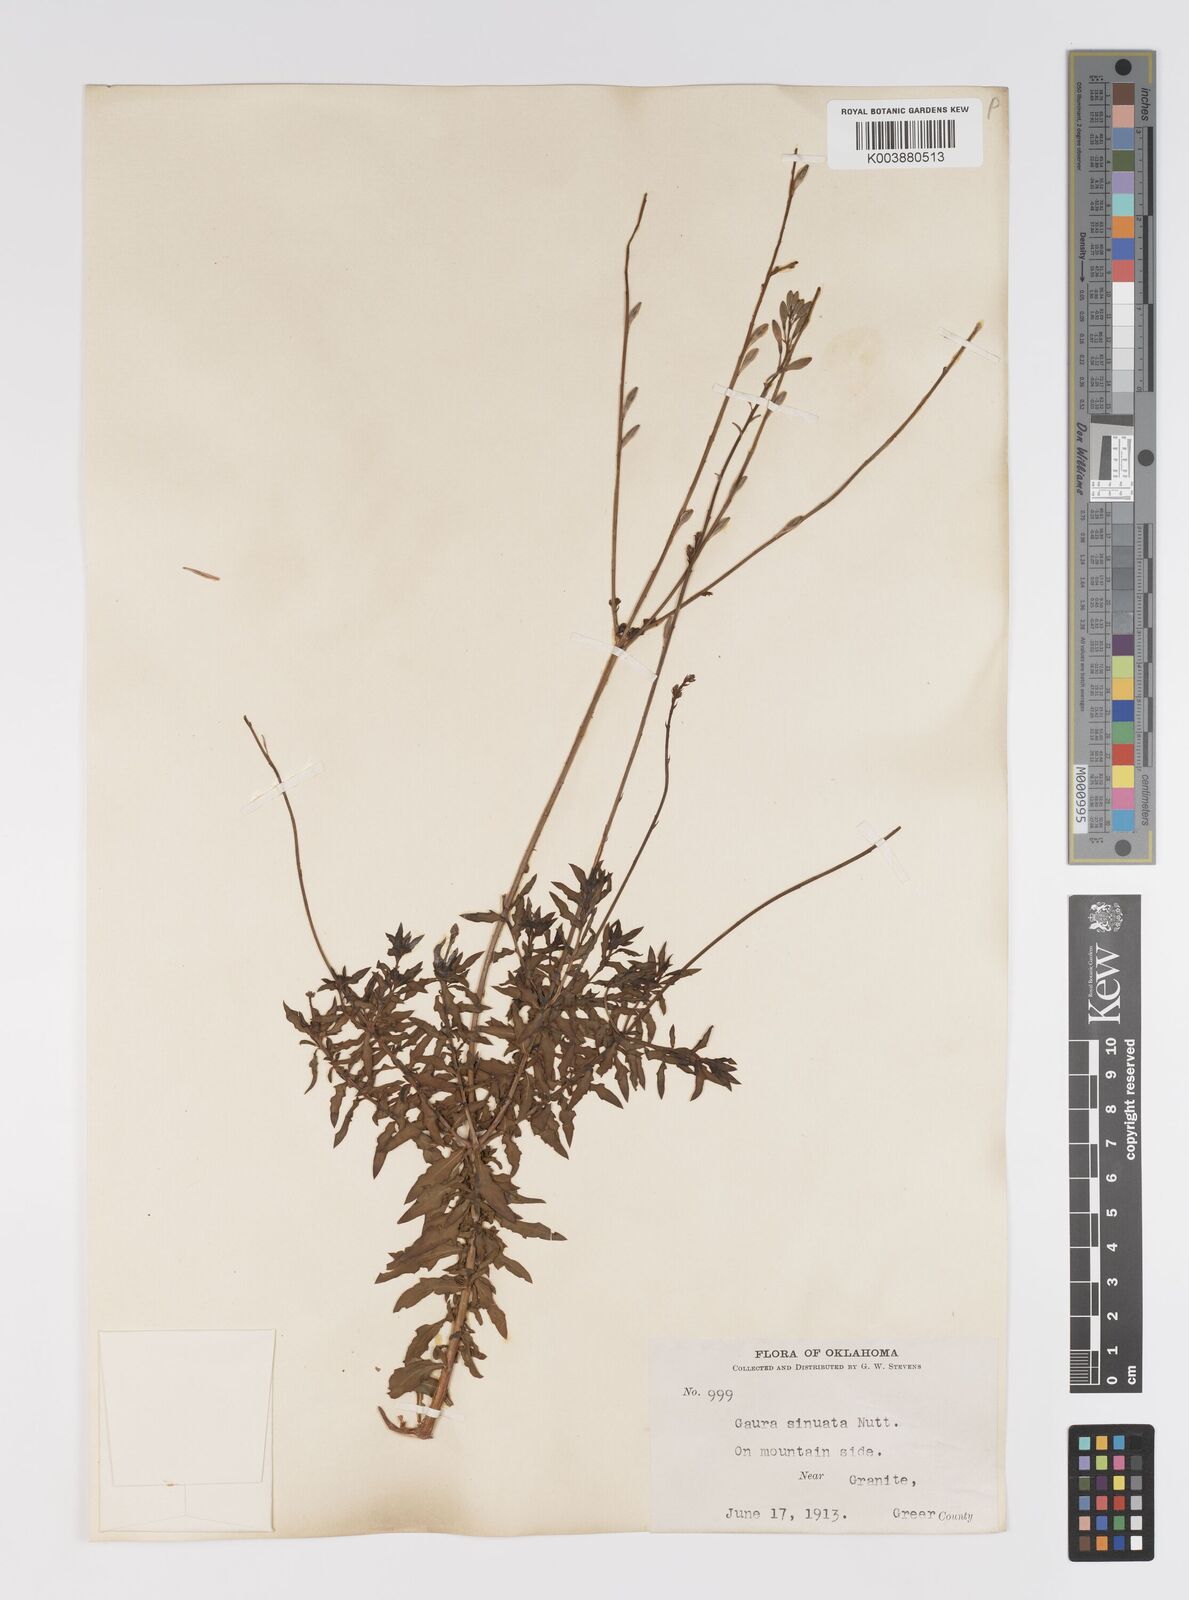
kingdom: Plantae
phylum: Tracheophyta
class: Magnoliopsida
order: Myrtales
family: Onagraceae
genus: Oenothera
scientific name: Oenothera sinuosa
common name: Wavyleaf beeblossom
